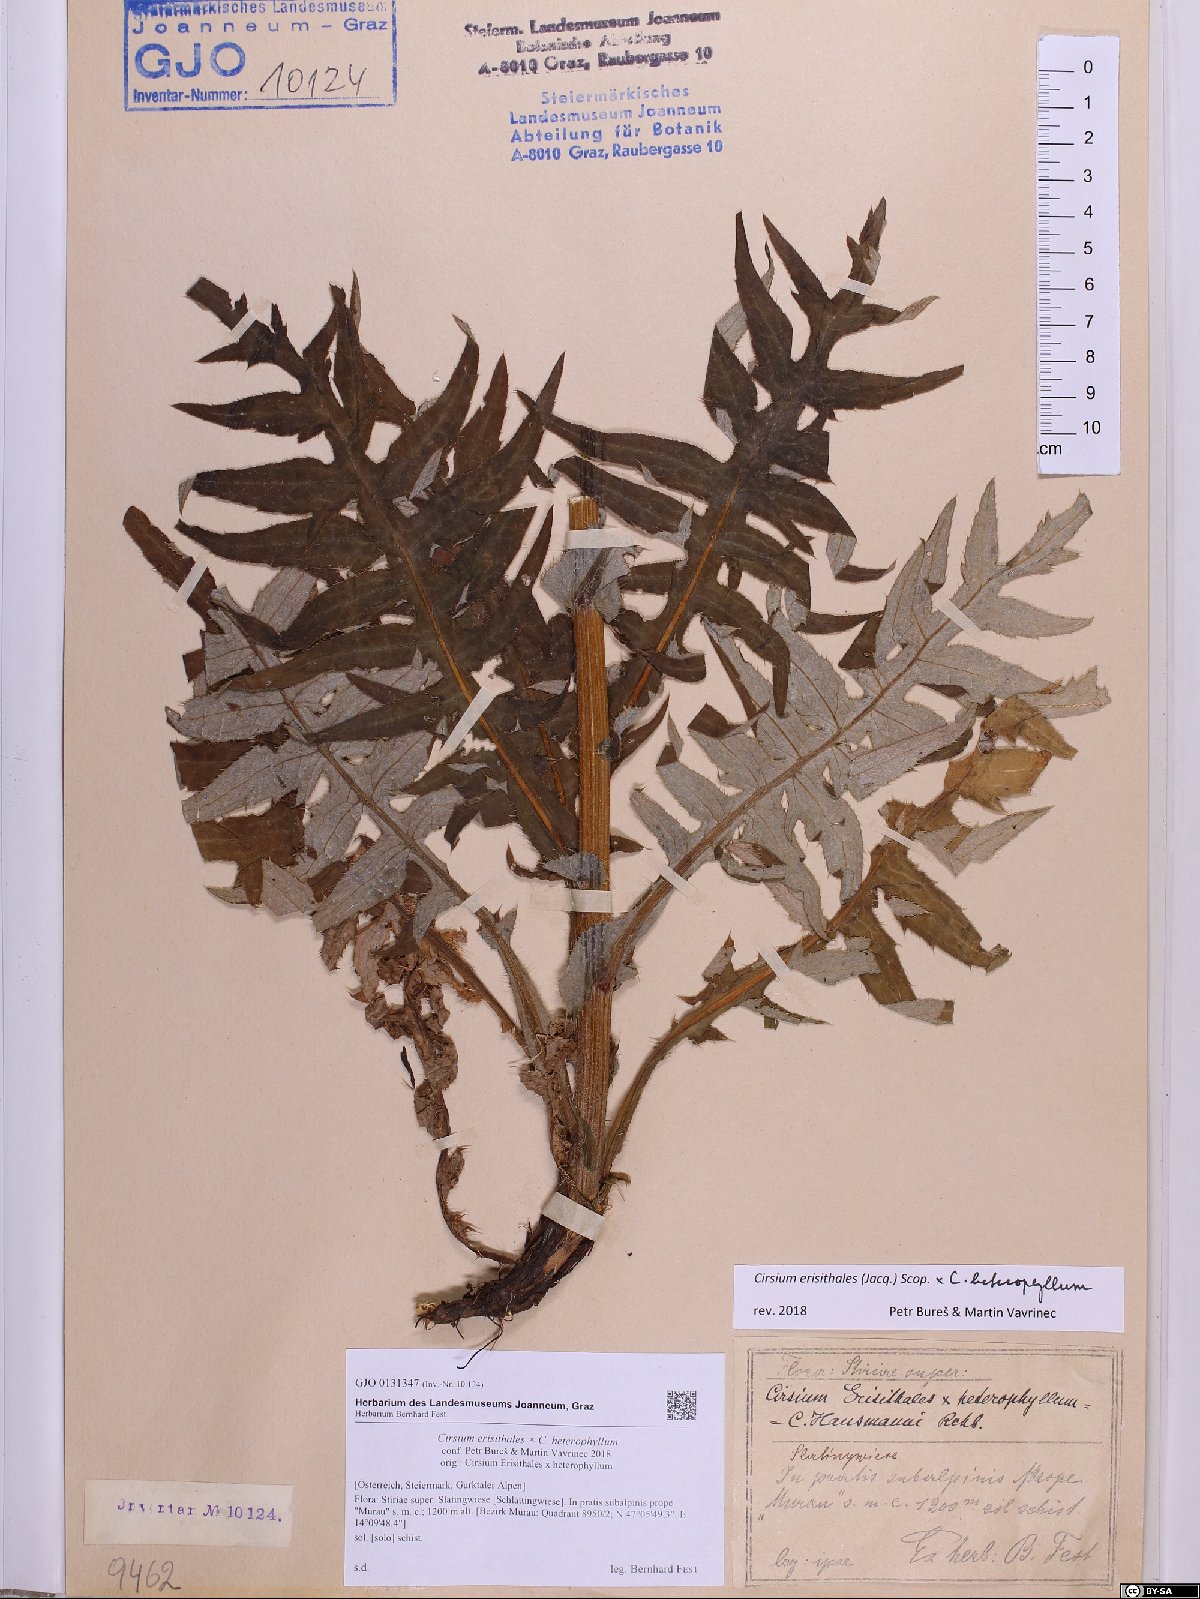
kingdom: Plantae
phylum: Tracheophyta
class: Magnoliopsida
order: Asterales
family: Asteraceae
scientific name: Asteraceae
